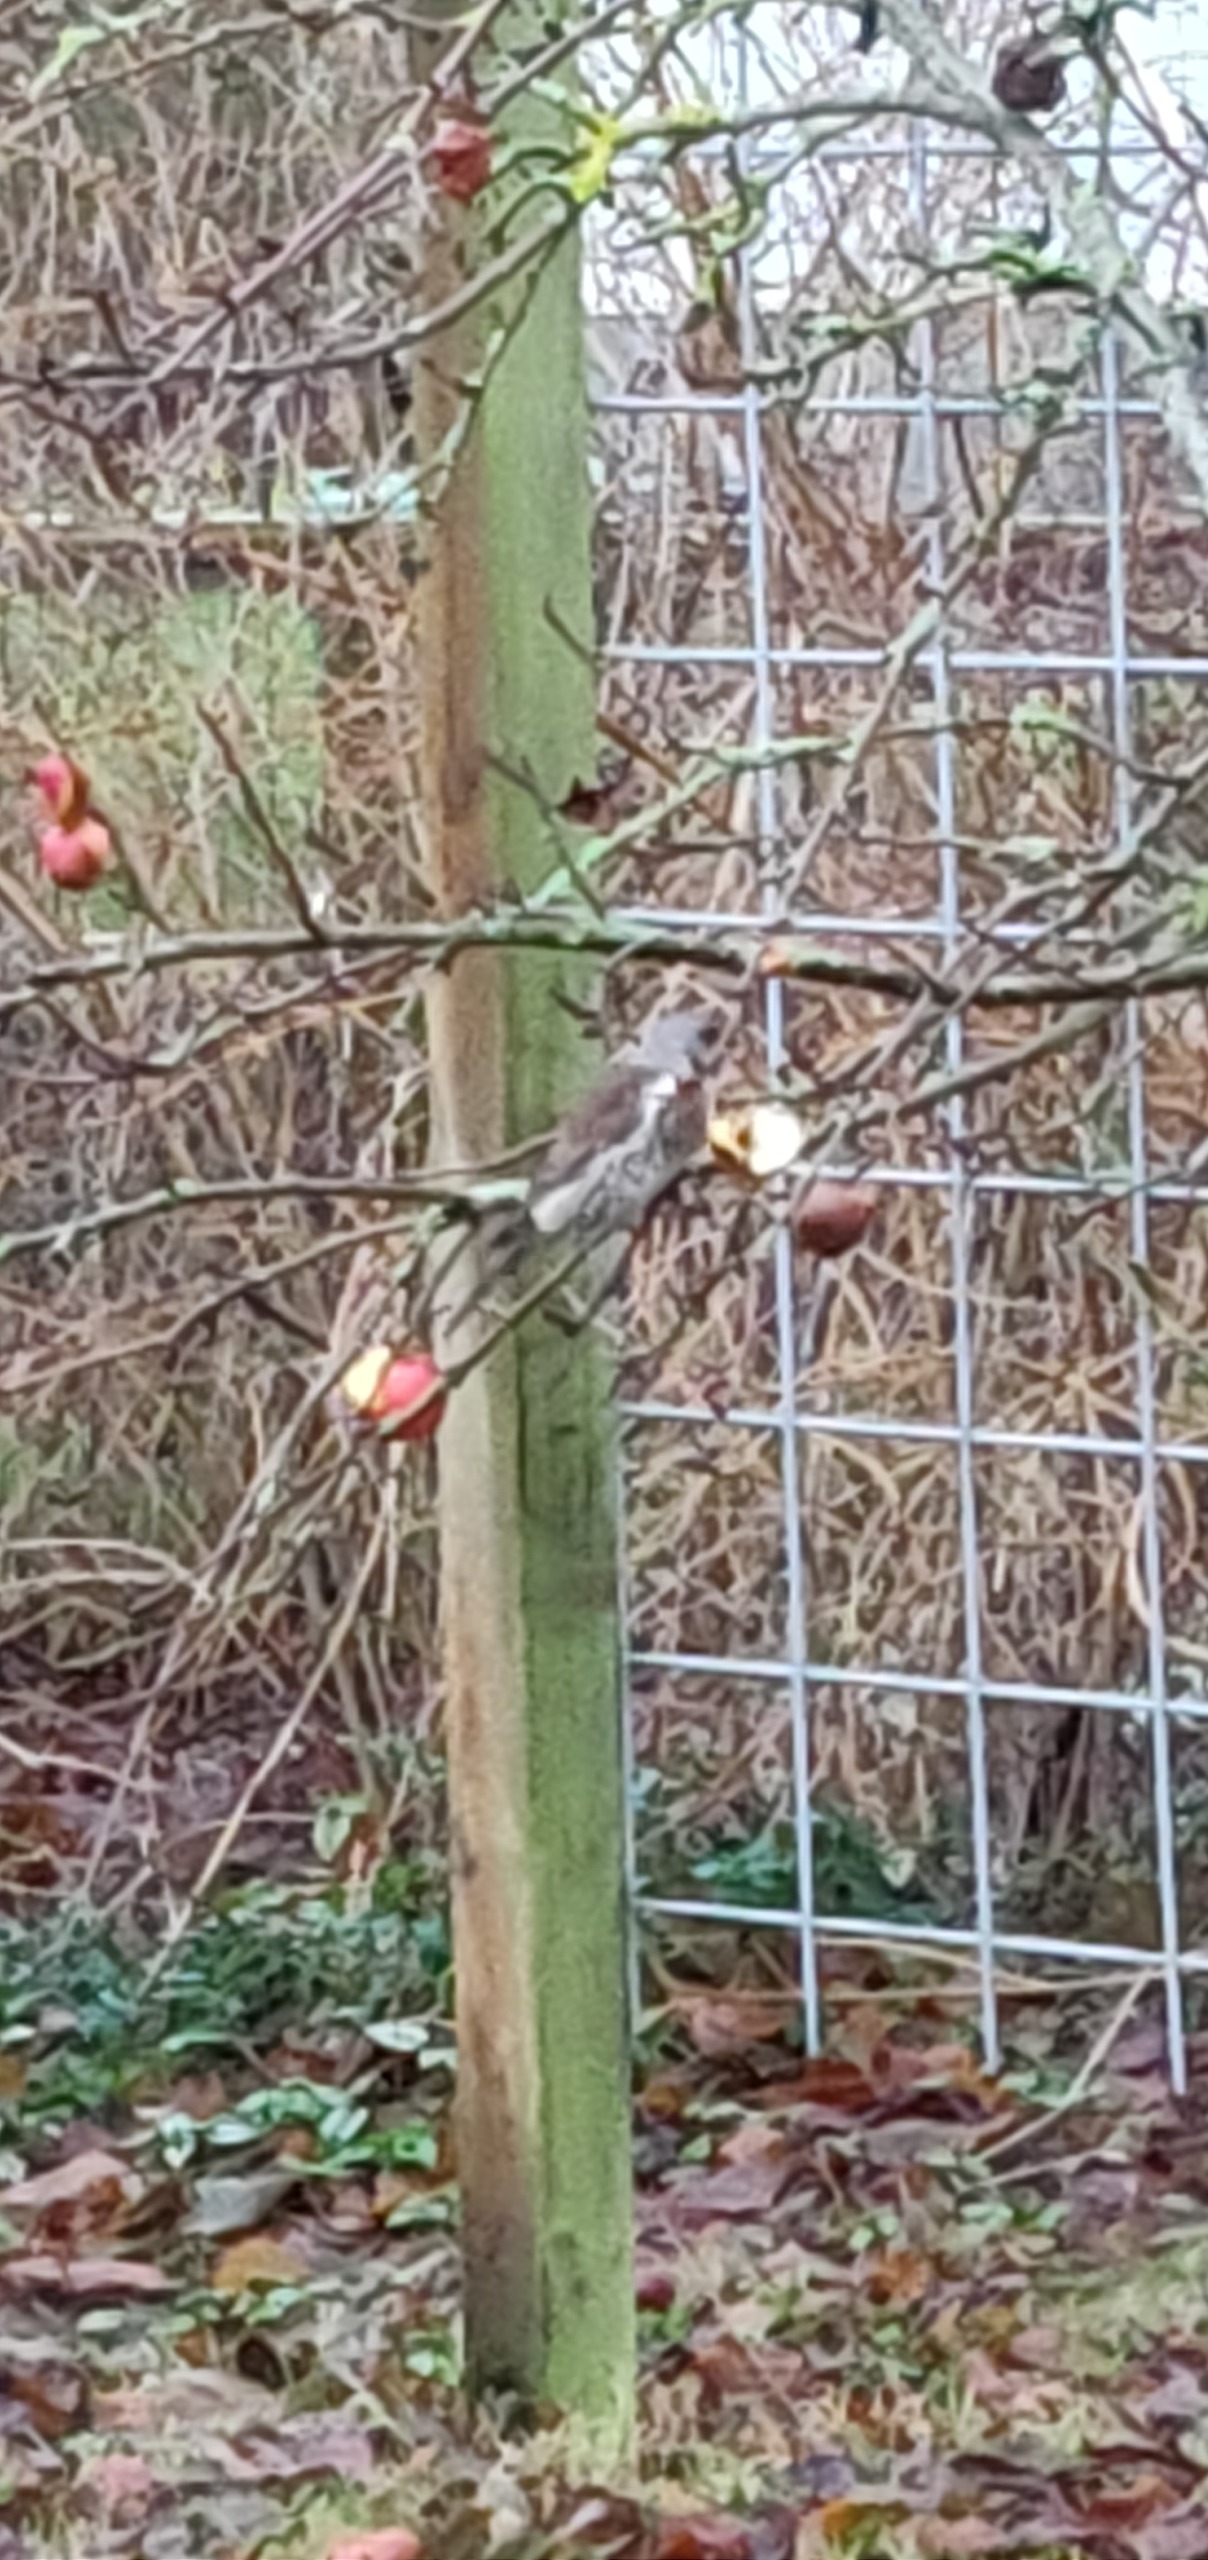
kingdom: Animalia
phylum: Chordata
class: Aves
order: Passeriformes
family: Turdidae
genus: Turdus
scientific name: Turdus pilaris
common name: Sjagger
